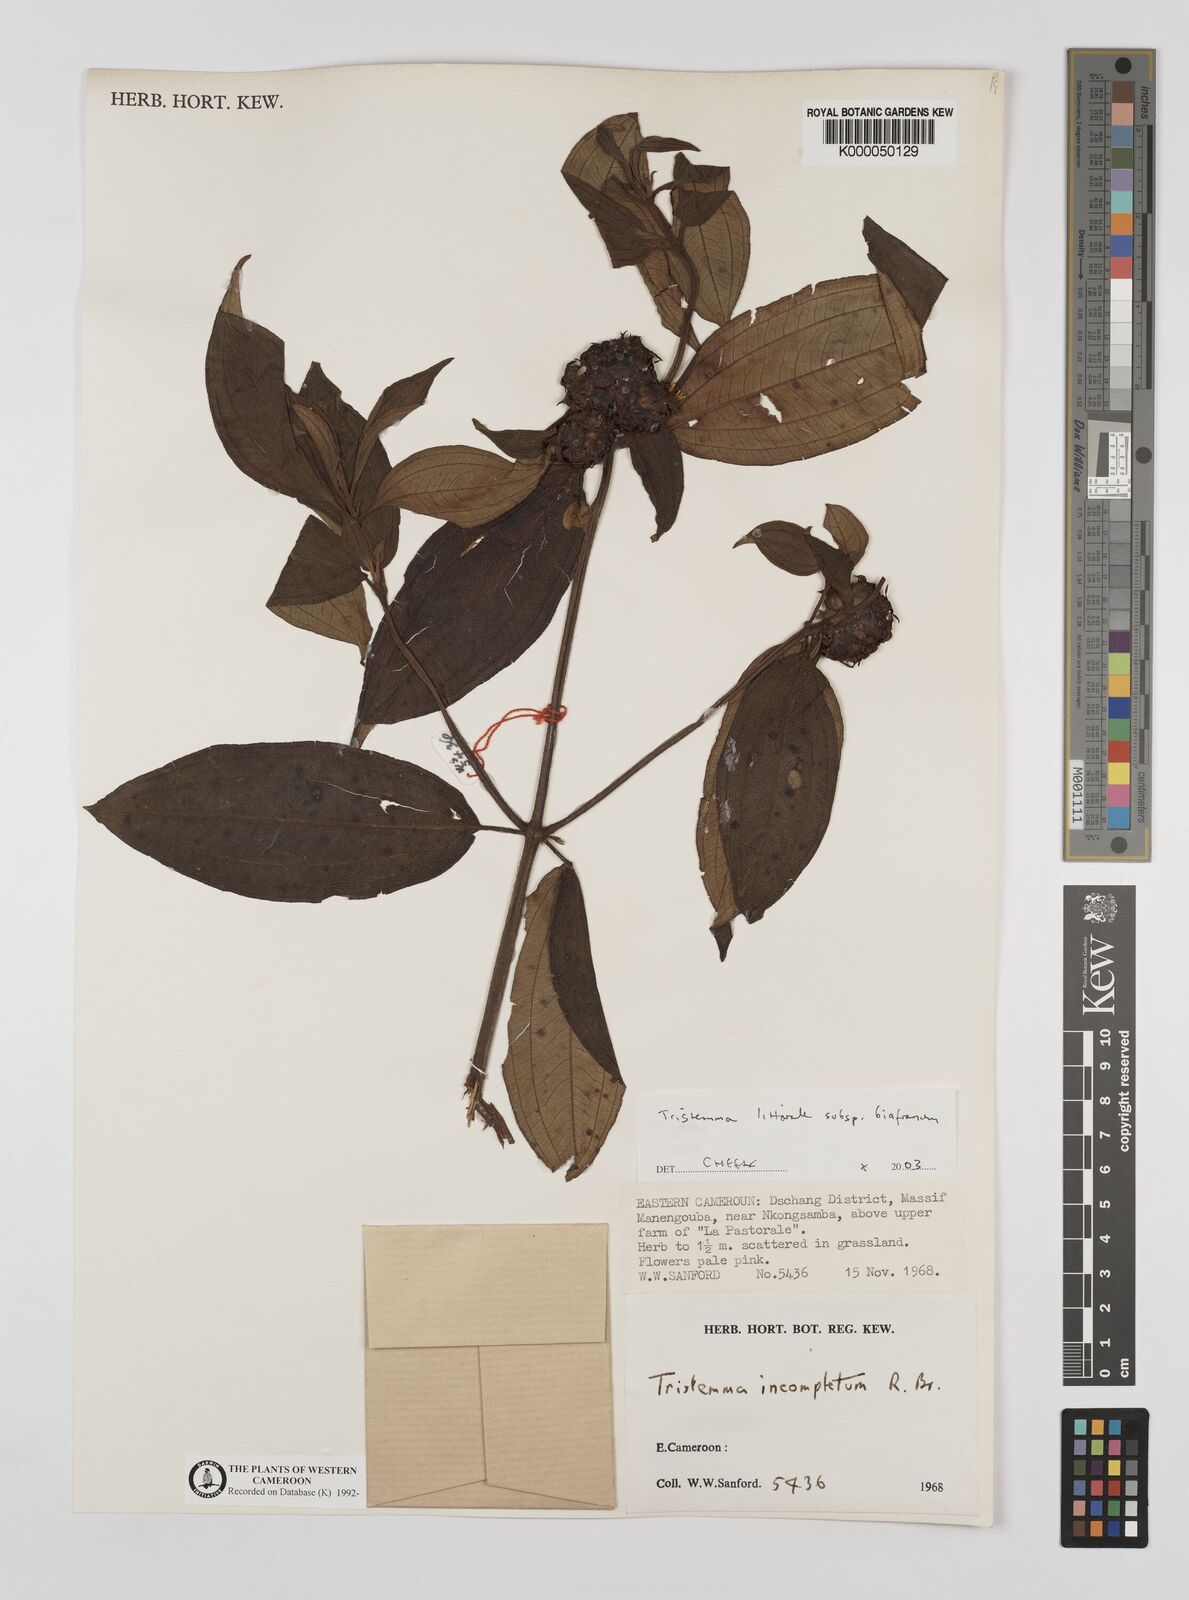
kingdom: Plantae
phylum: Tracheophyta
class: Magnoliopsida
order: Myrtales
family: Melastomataceae
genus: Tristemma
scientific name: Tristemma littorale
